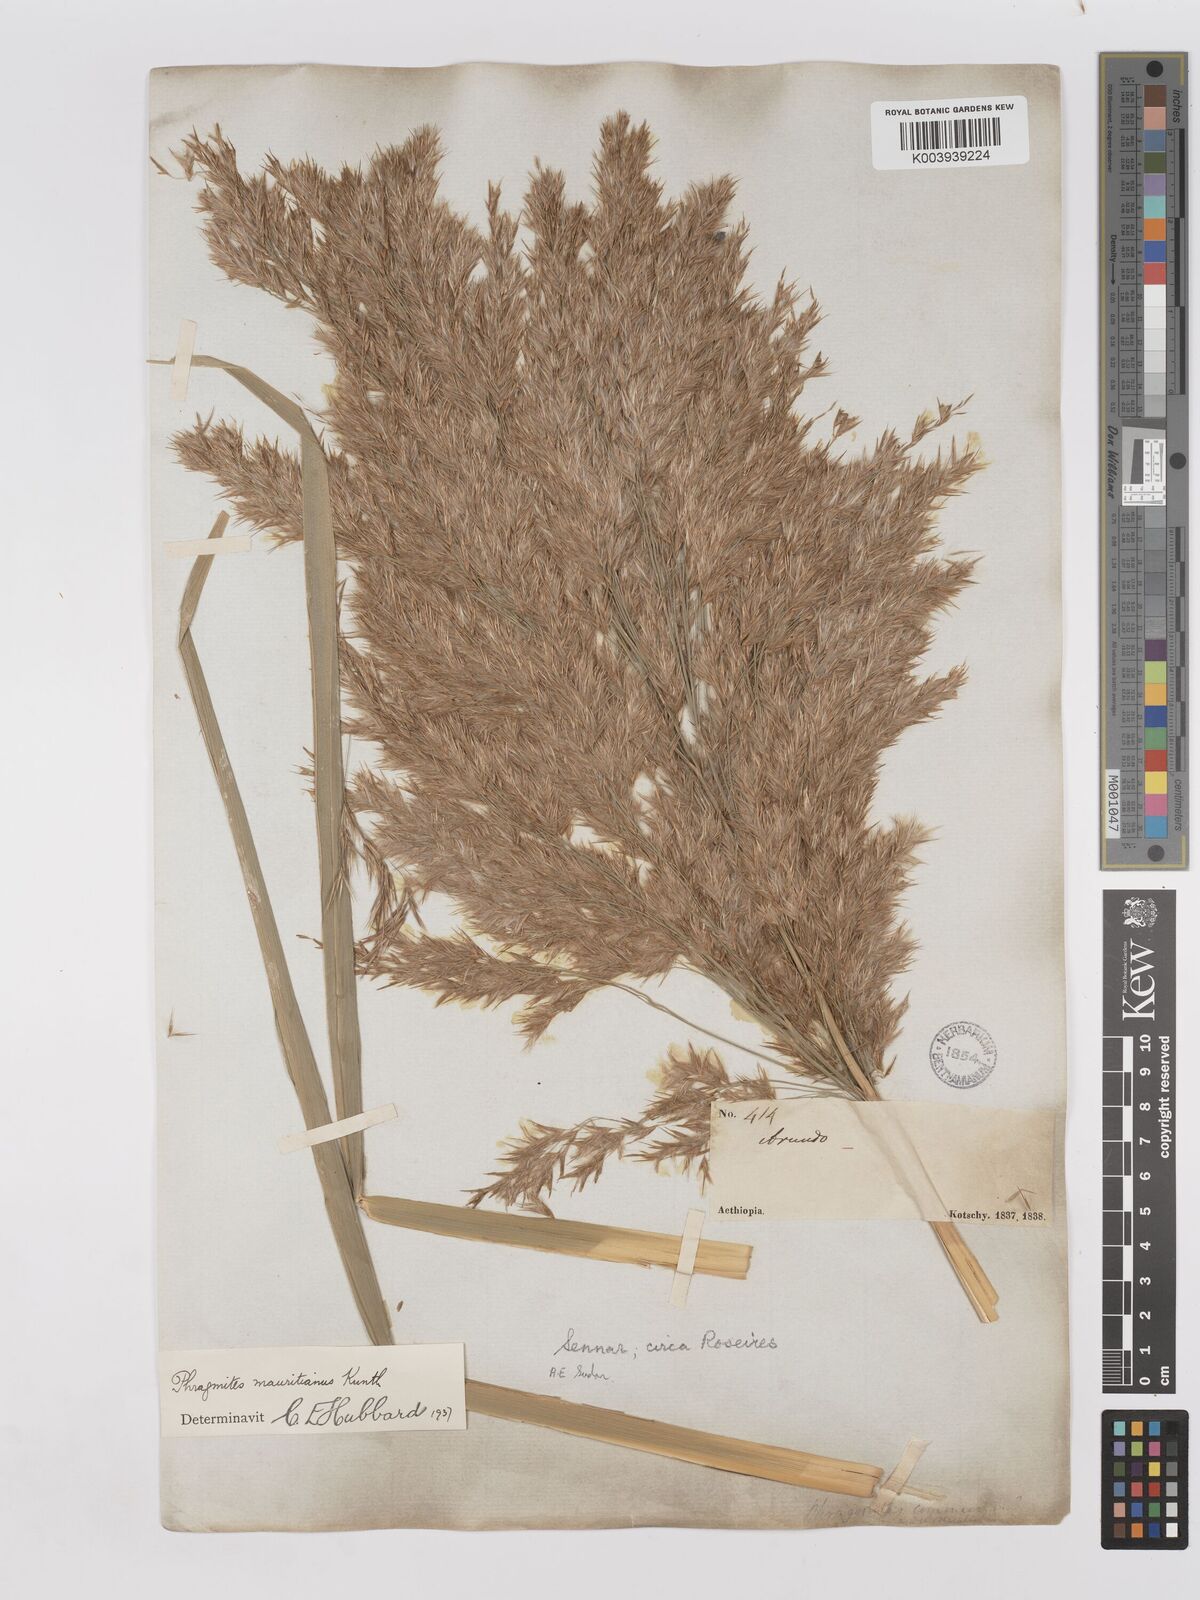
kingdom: Plantae
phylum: Tracheophyta
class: Liliopsida
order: Poales
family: Poaceae
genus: Phragmites
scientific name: Phragmites mauritianus
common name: Reed grass
